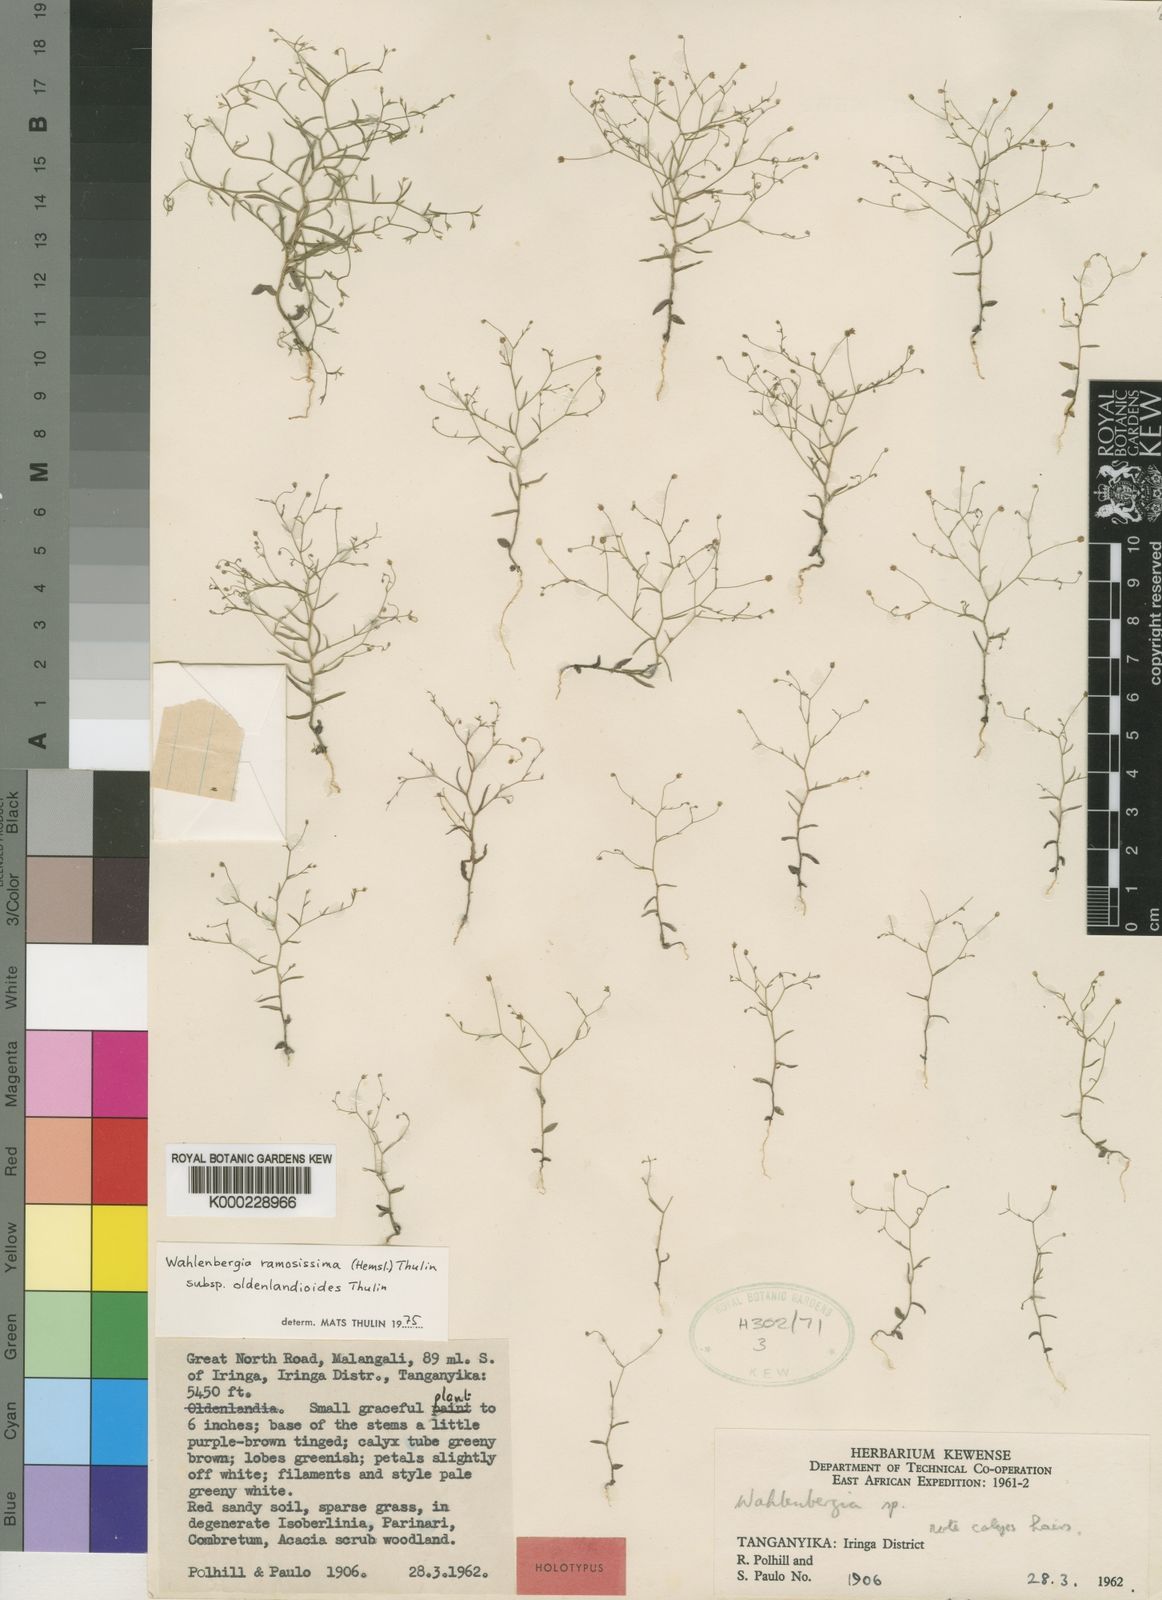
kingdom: Plantae
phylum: Tracheophyta
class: Magnoliopsida
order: Asterales
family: Campanulaceae
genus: Wahlenbergia
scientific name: Wahlenbergia ramosissima
